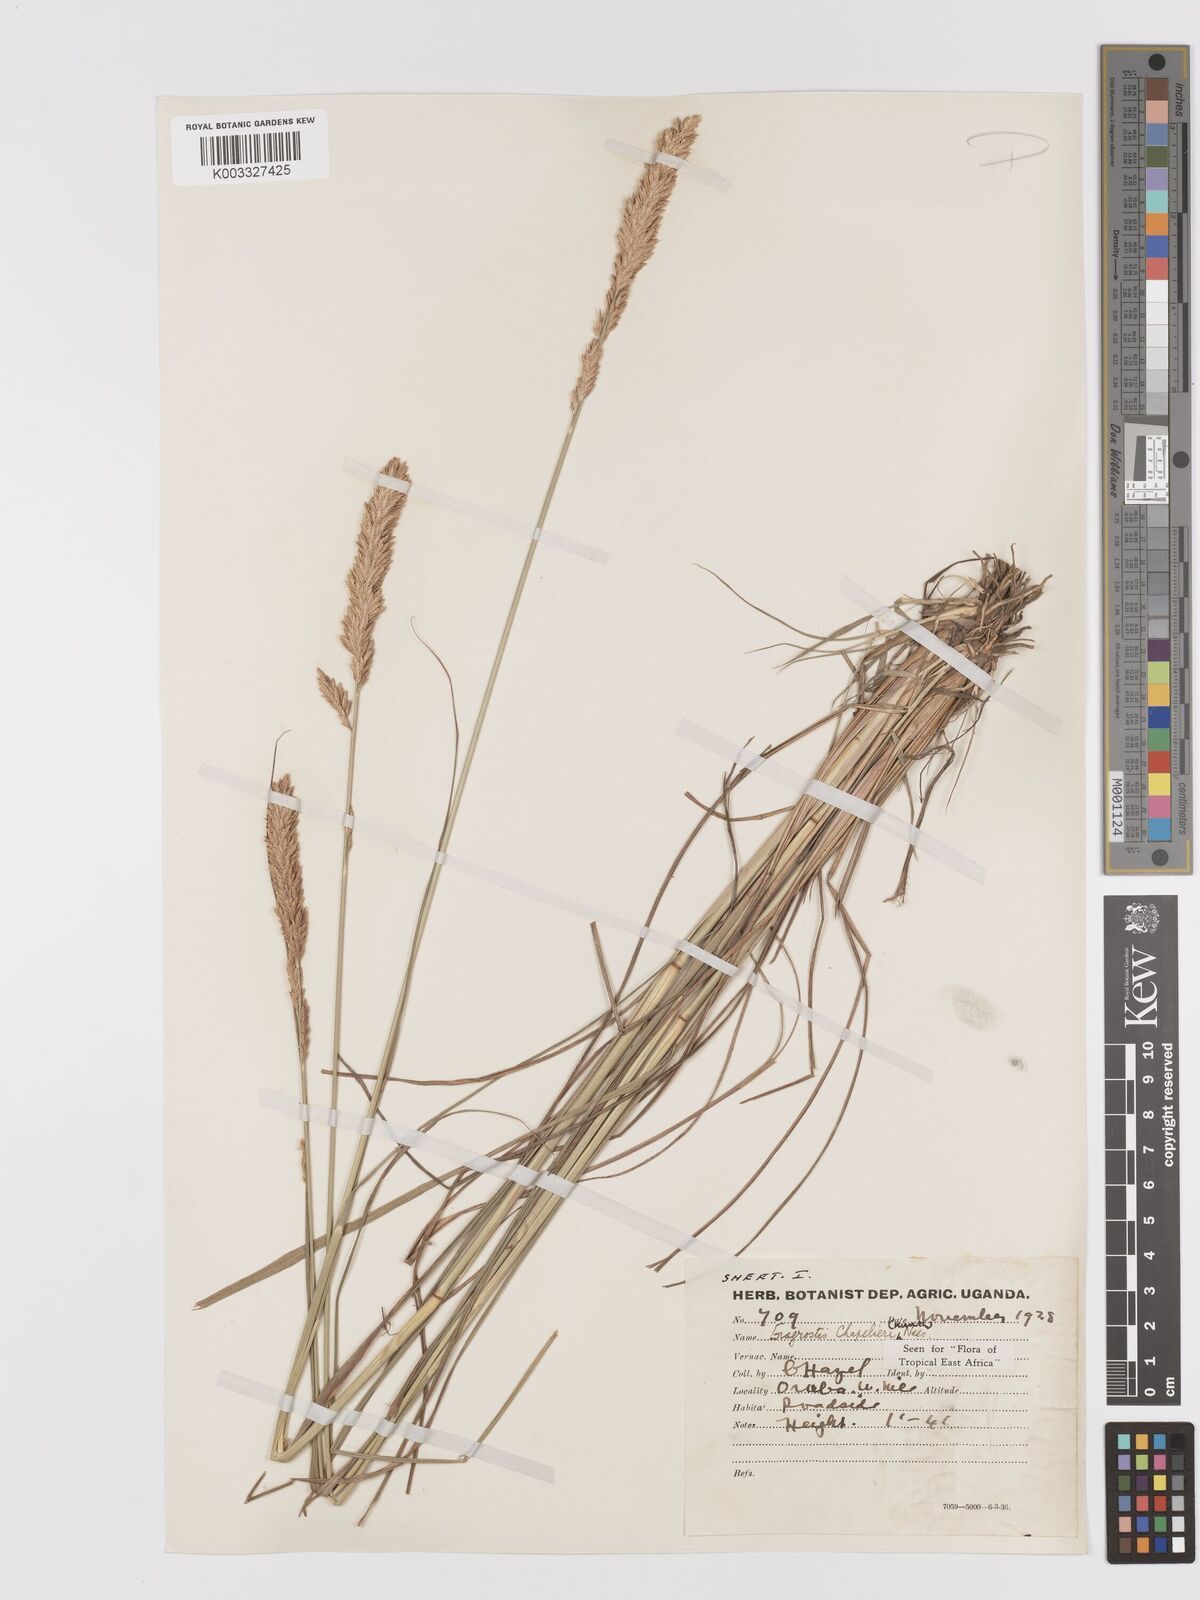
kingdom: Plantae
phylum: Tracheophyta
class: Liliopsida
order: Poales
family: Poaceae
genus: Eragrostis
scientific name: Eragrostis chapelieri
